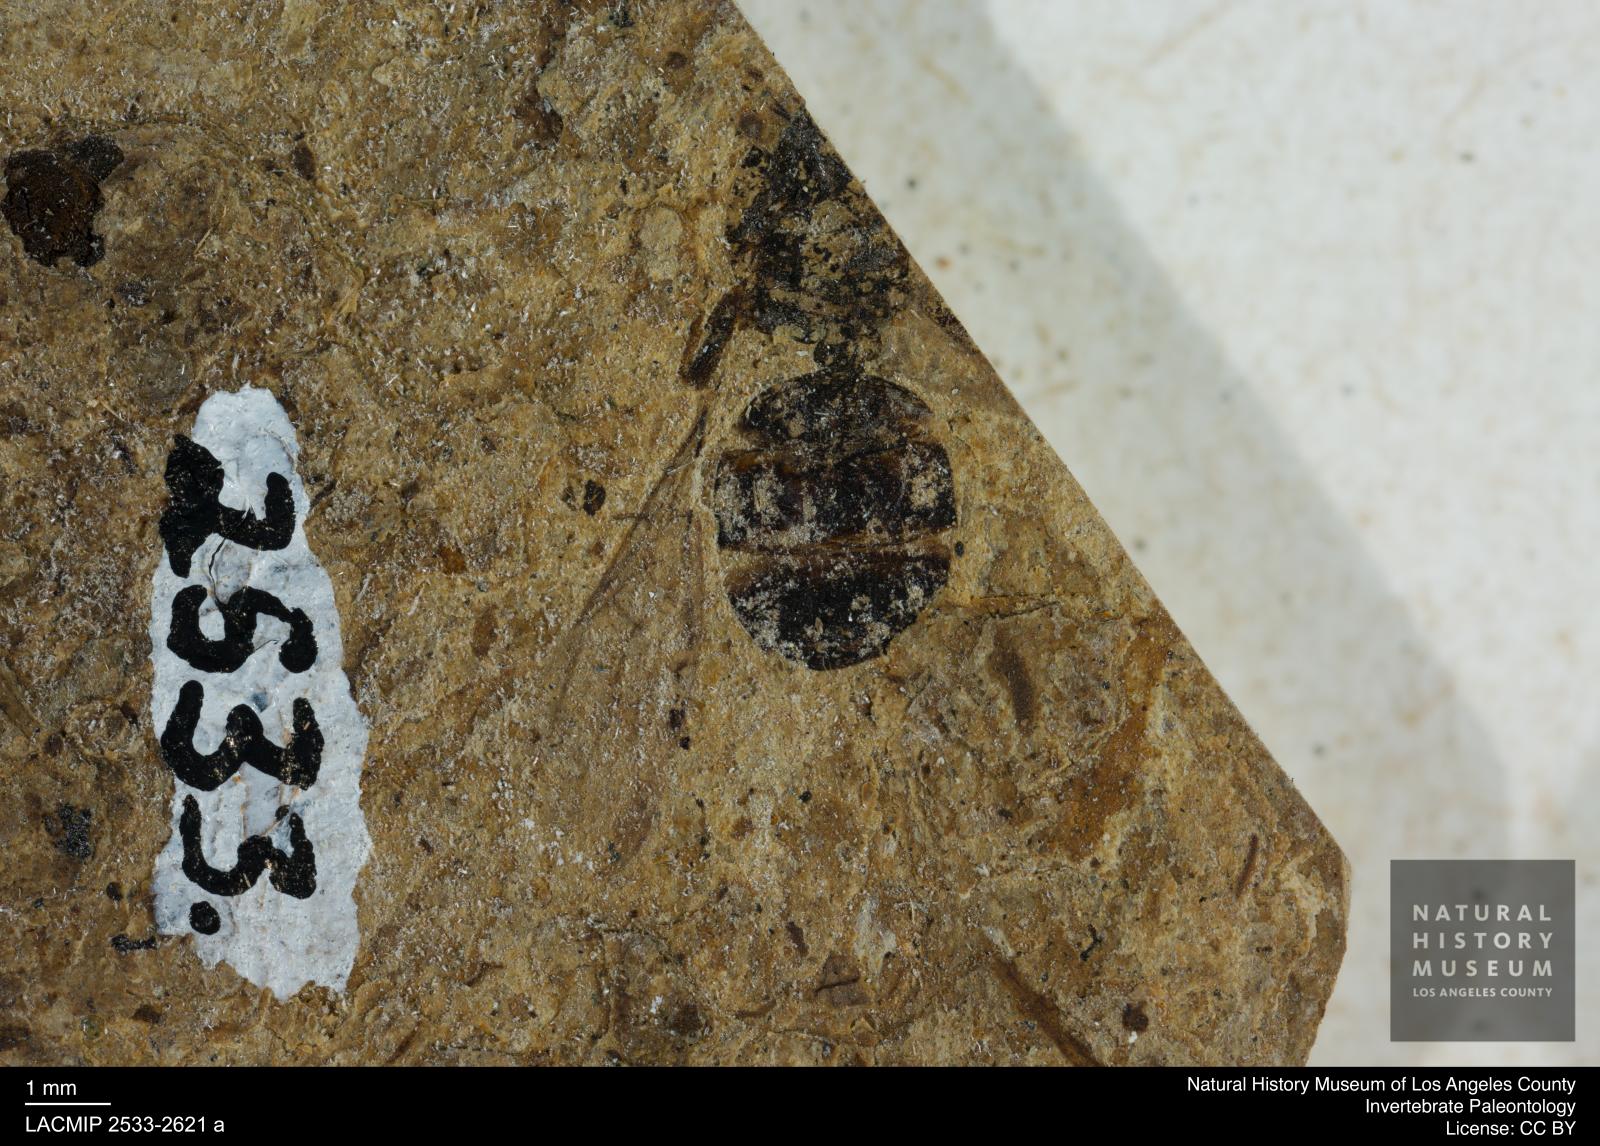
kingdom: Animalia
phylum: Arthropoda
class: Insecta
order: Hymenoptera
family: Formicidae
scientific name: Formicidae
